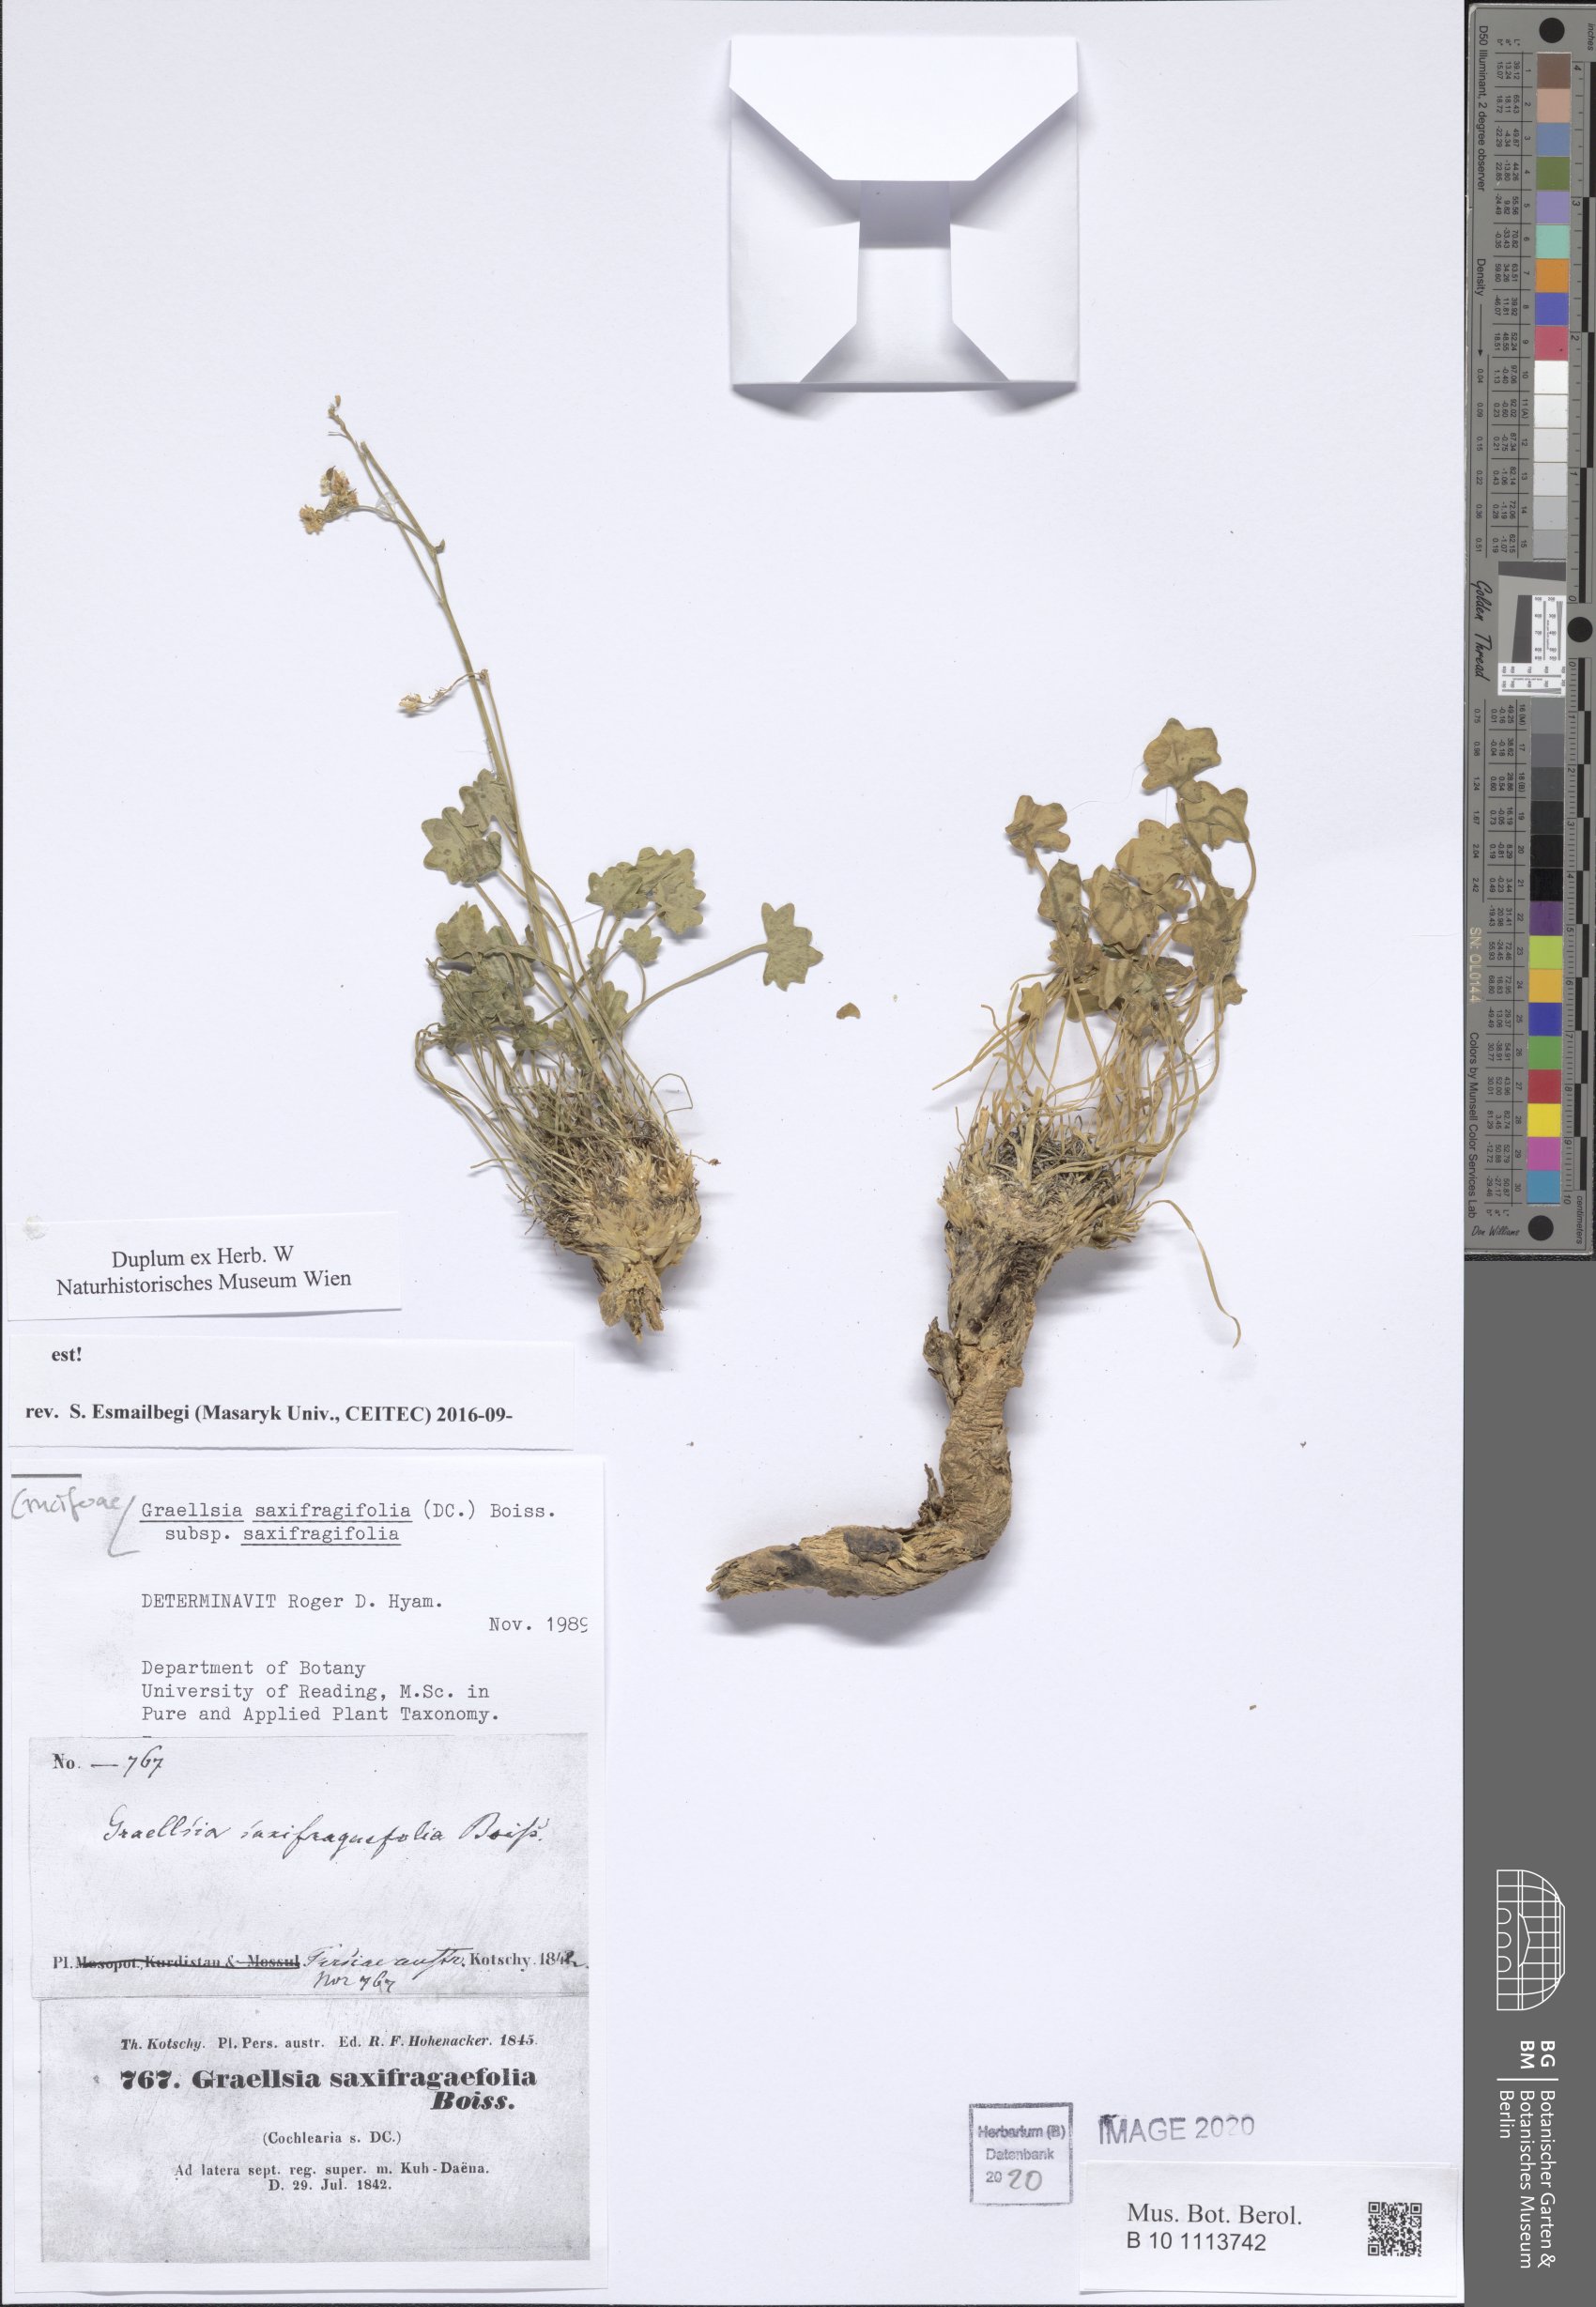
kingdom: Plantae
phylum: Tracheophyta
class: Magnoliopsida
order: Brassicales
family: Brassicaceae
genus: Graellsia
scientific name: Graellsia saxifragifolia
